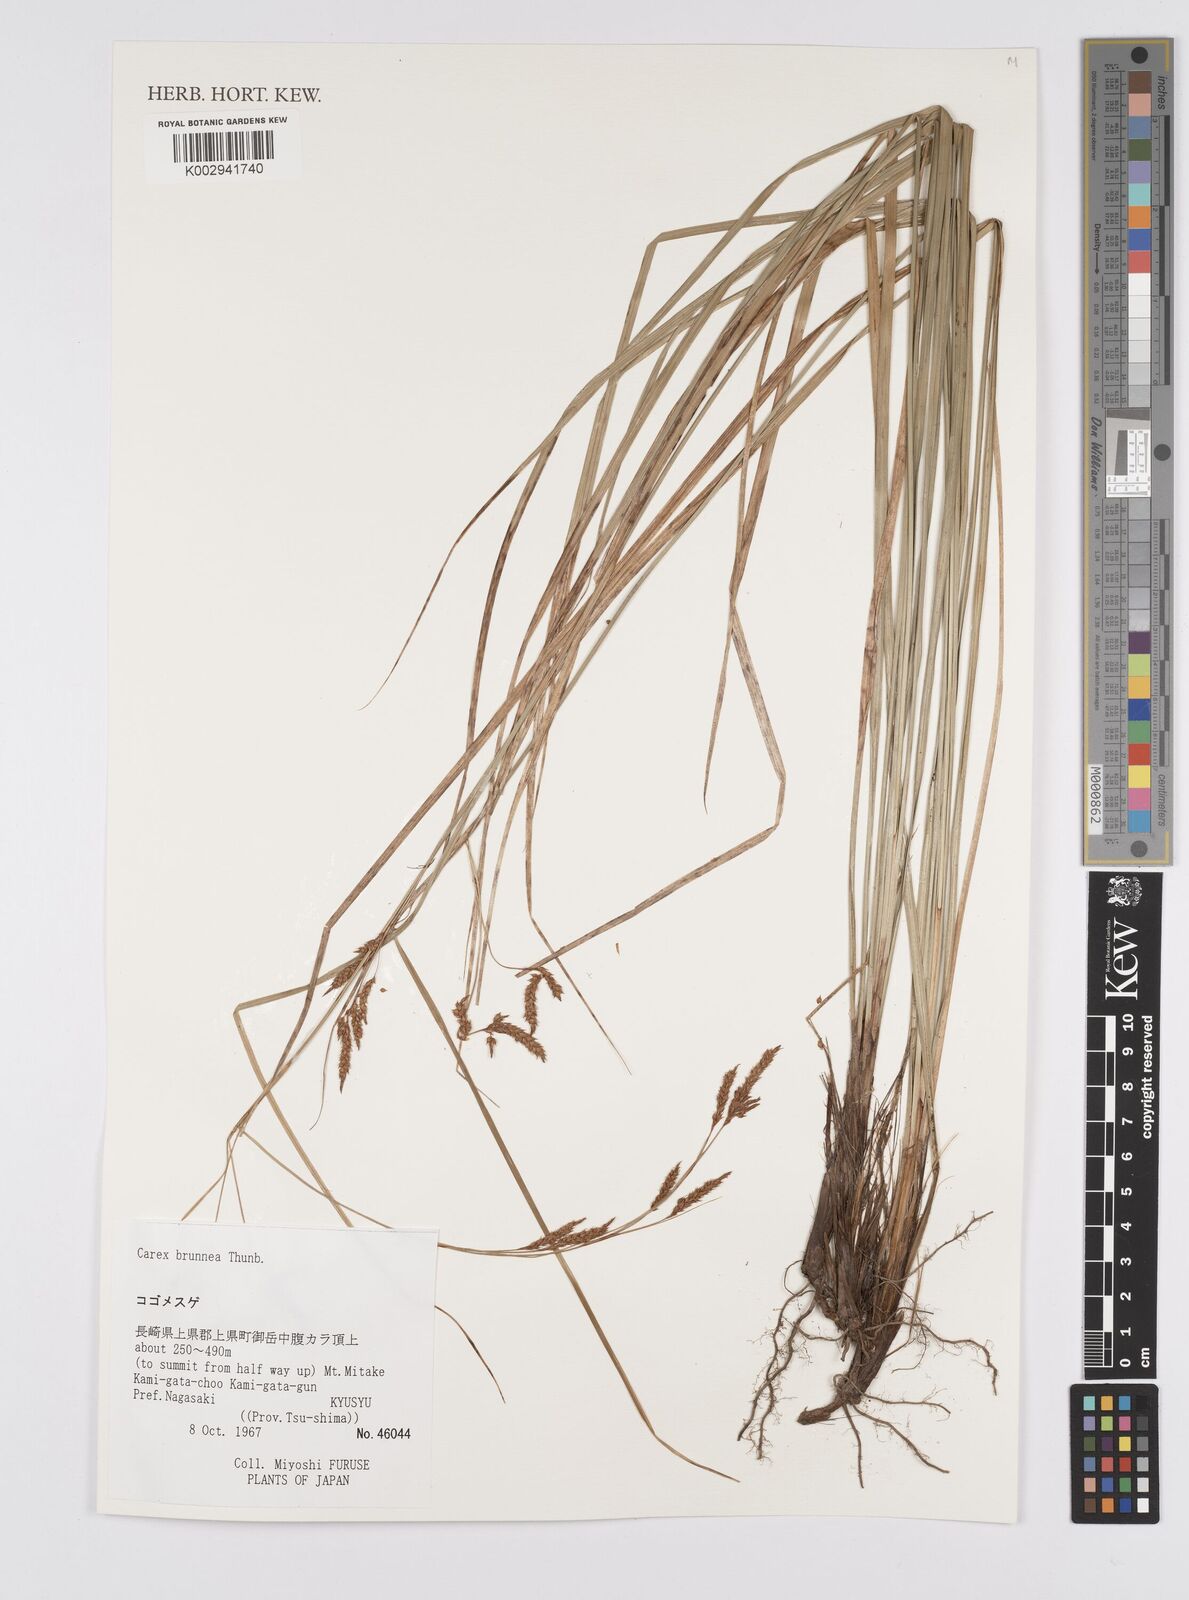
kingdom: Plantae
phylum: Tracheophyta
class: Liliopsida
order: Poales
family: Cyperaceae
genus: Carex
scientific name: Carex brunnea
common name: Greater brown sedge
